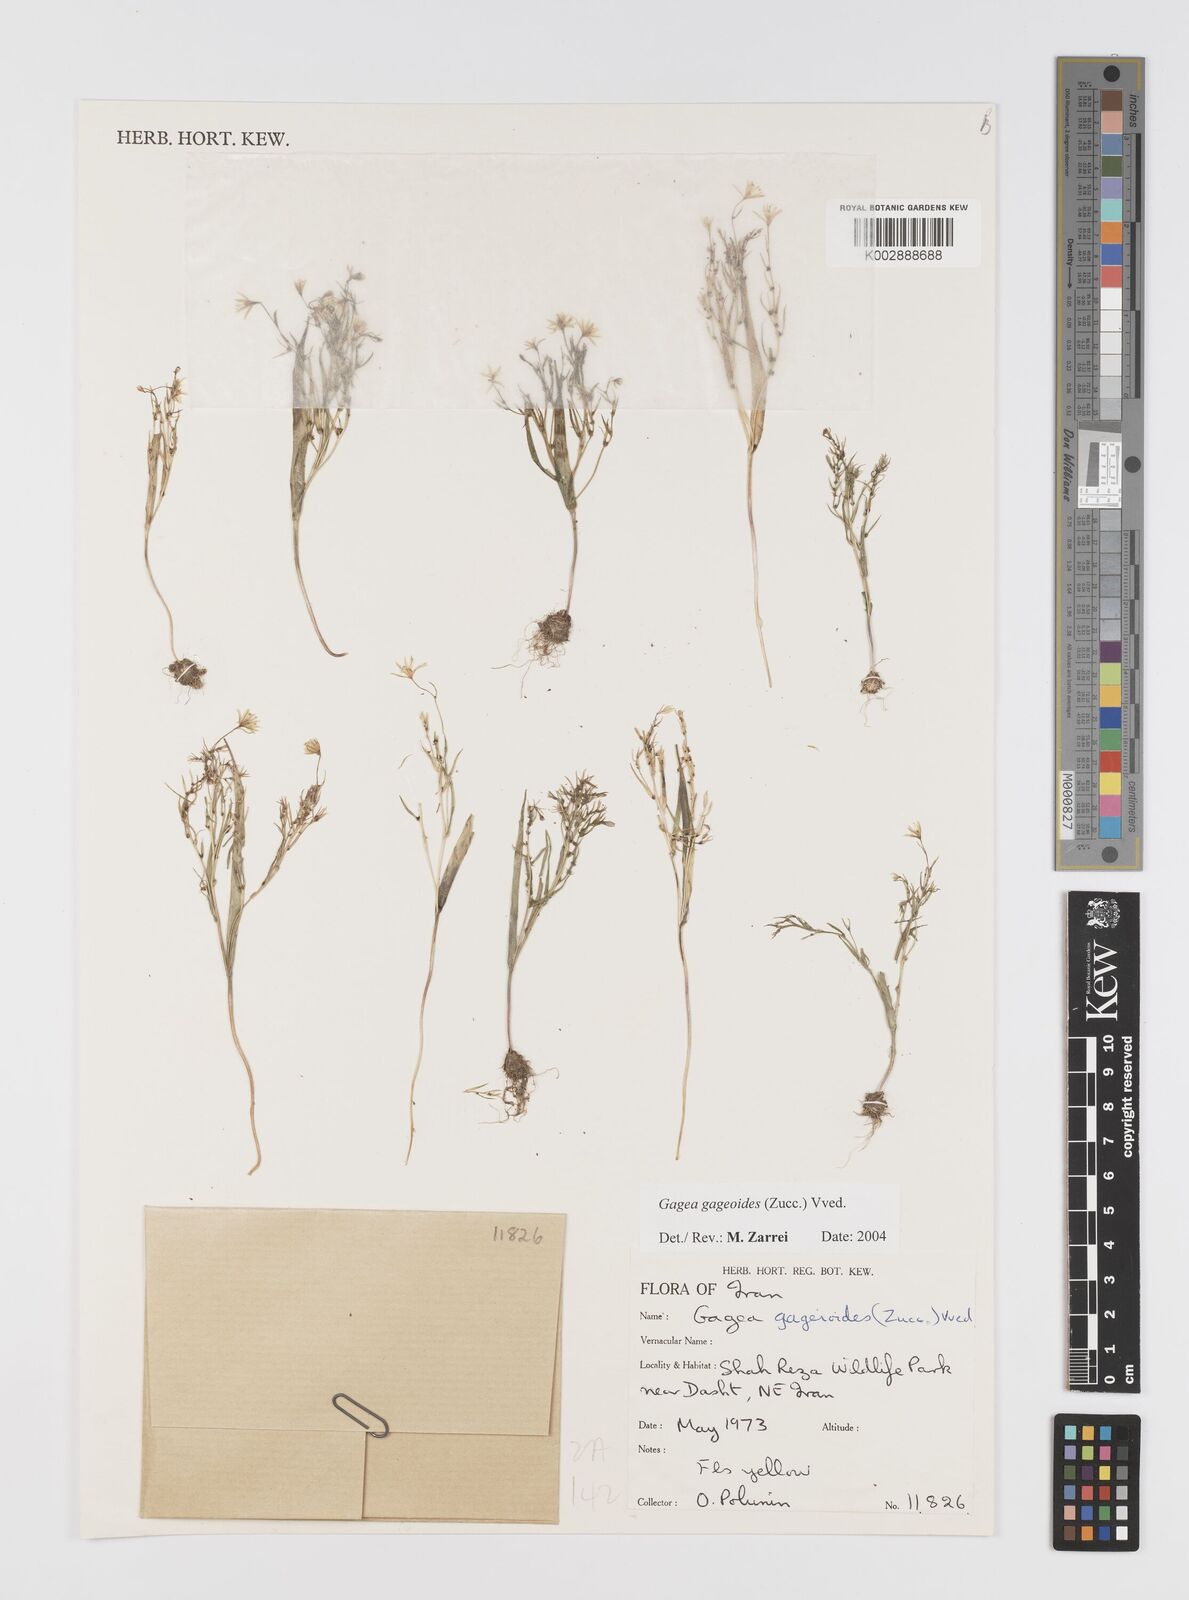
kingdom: Plantae
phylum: Tracheophyta
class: Liliopsida
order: Liliales
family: Liliaceae
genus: Gagea
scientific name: Gagea gageoides
